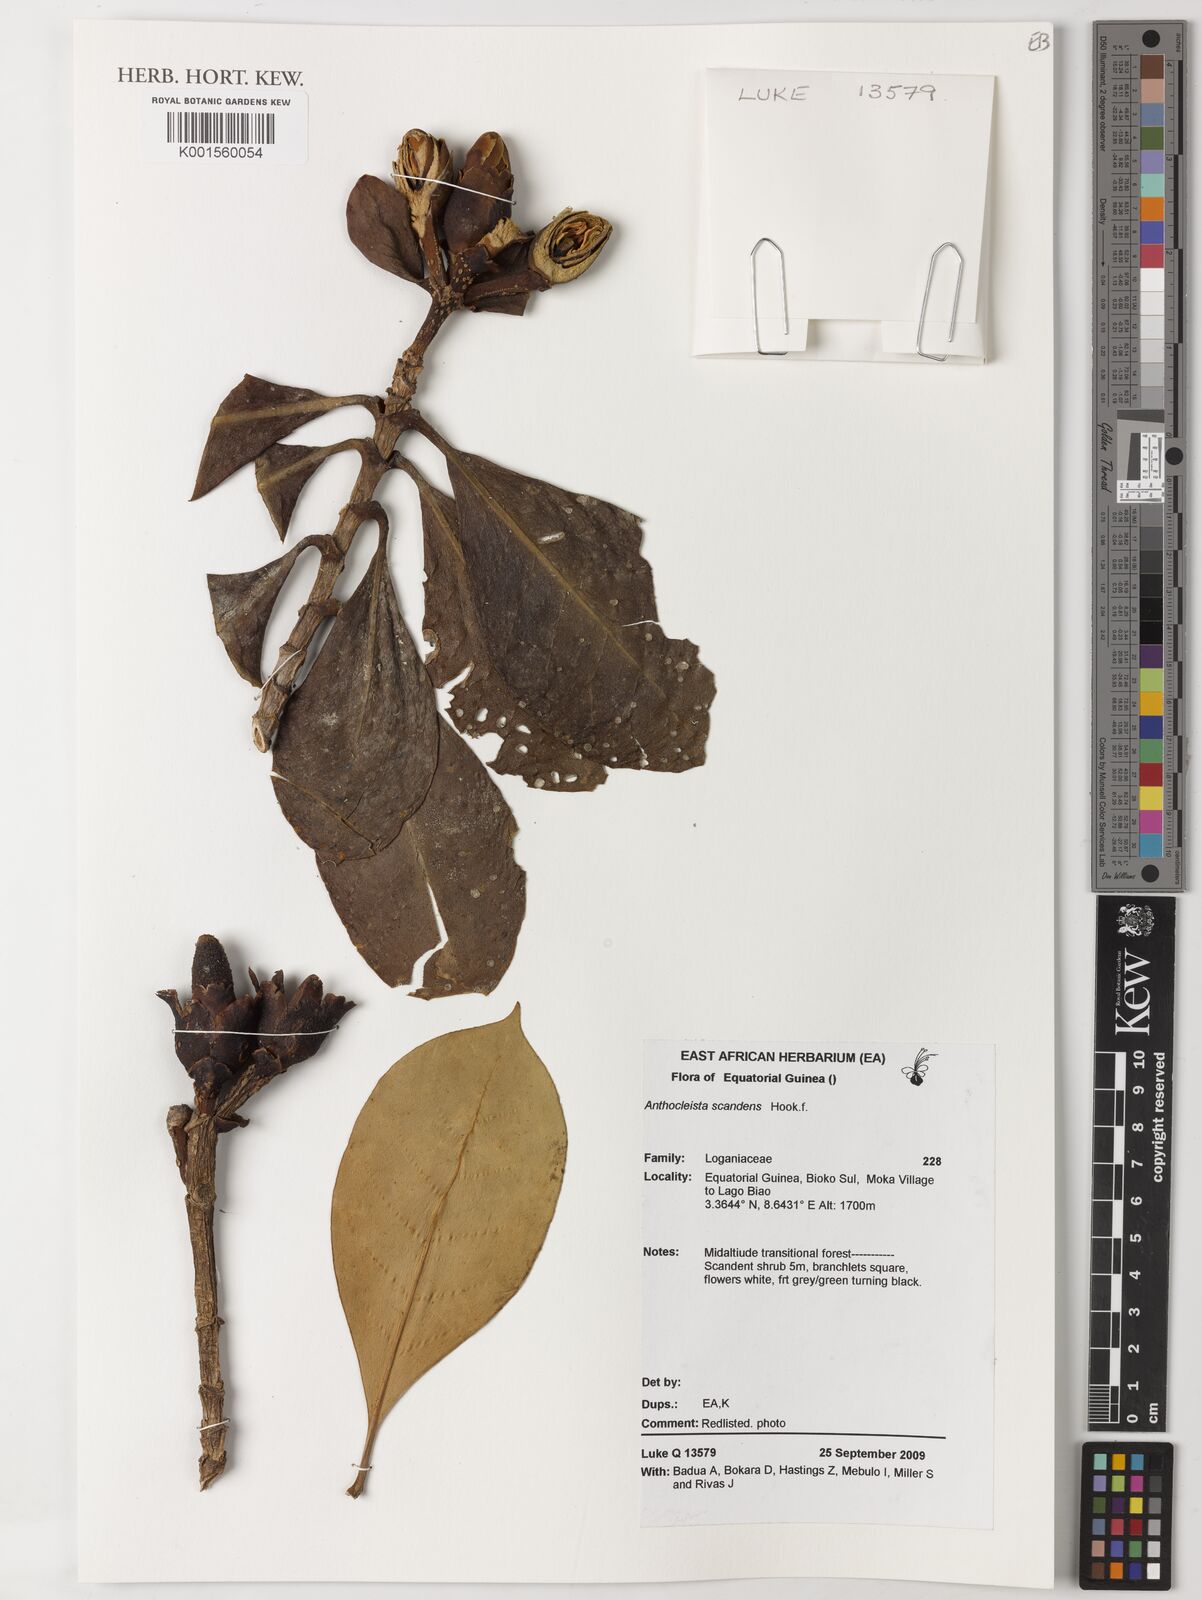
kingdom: Plantae
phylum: Tracheophyta
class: Magnoliopsida
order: Gentianales
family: Gentianaceae
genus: Anthocleista
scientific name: Anthocleista scandens
